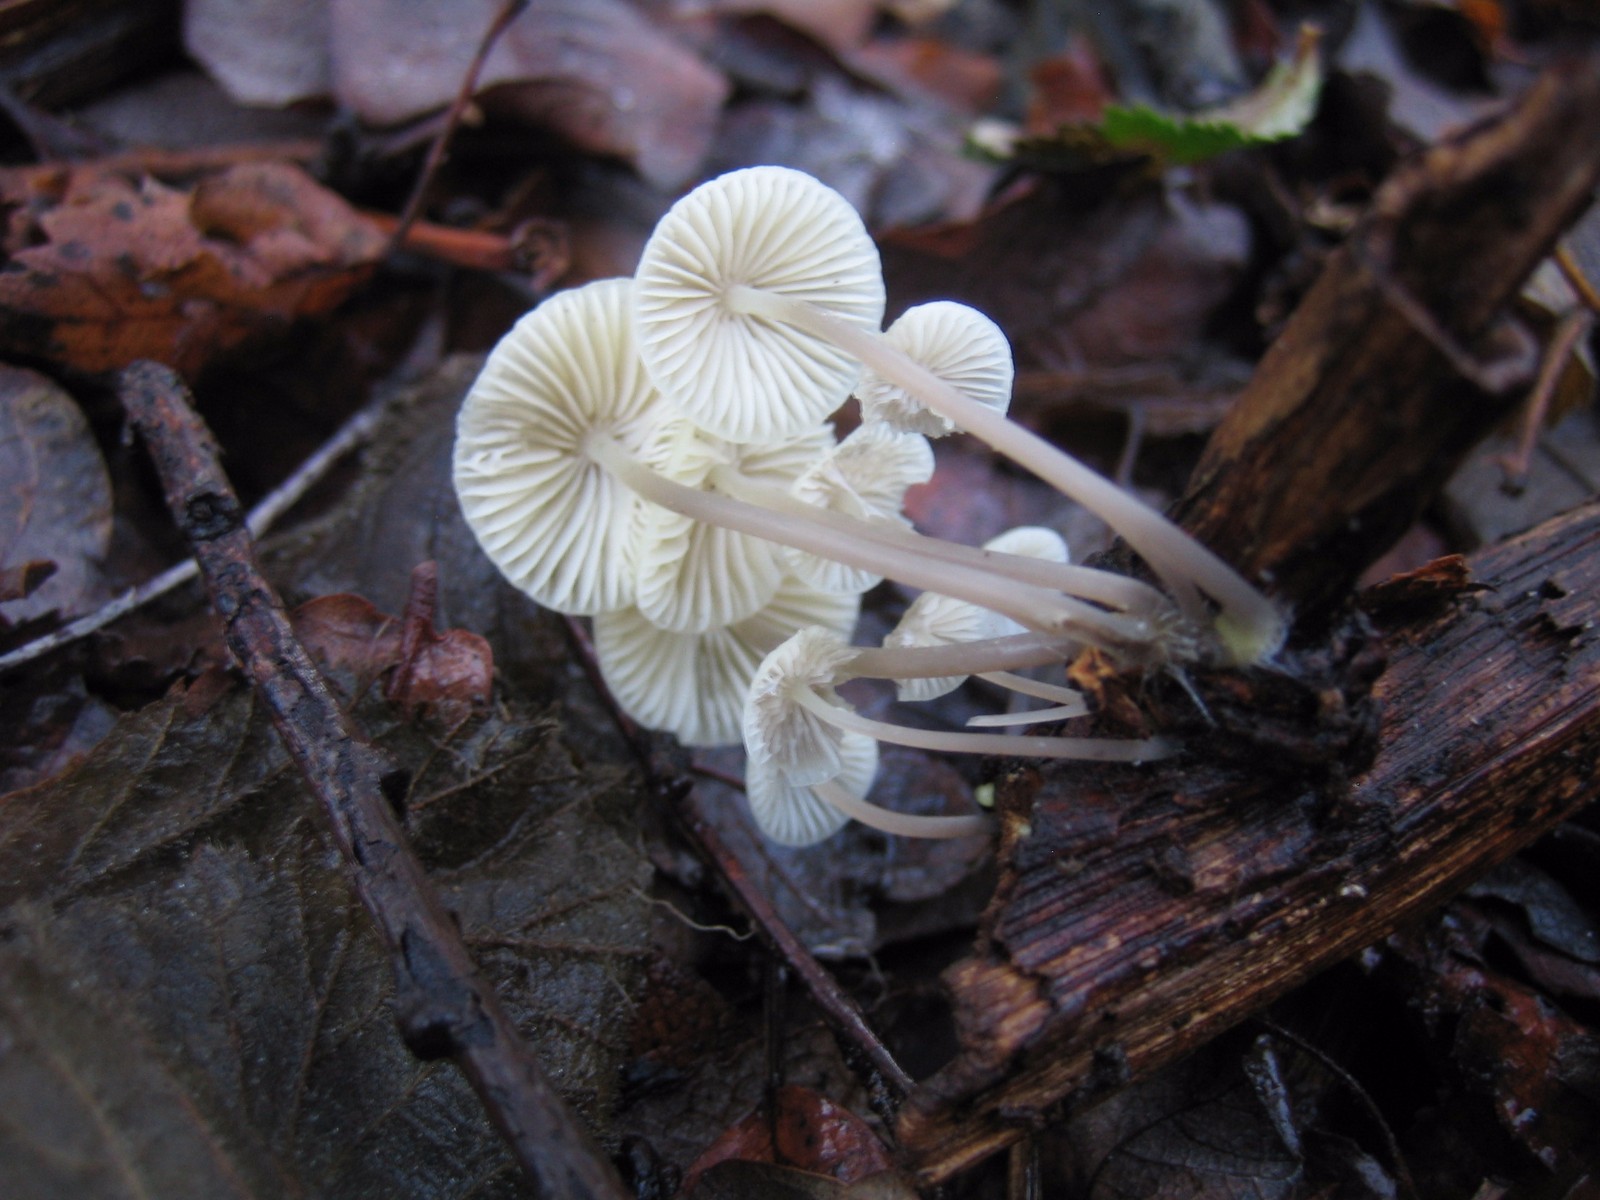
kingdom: Fungi
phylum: Basidiomycota
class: Agaricomycetes
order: Agaricales
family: Mycenaceae
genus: Mycena
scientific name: Mycena
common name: huesvamp
